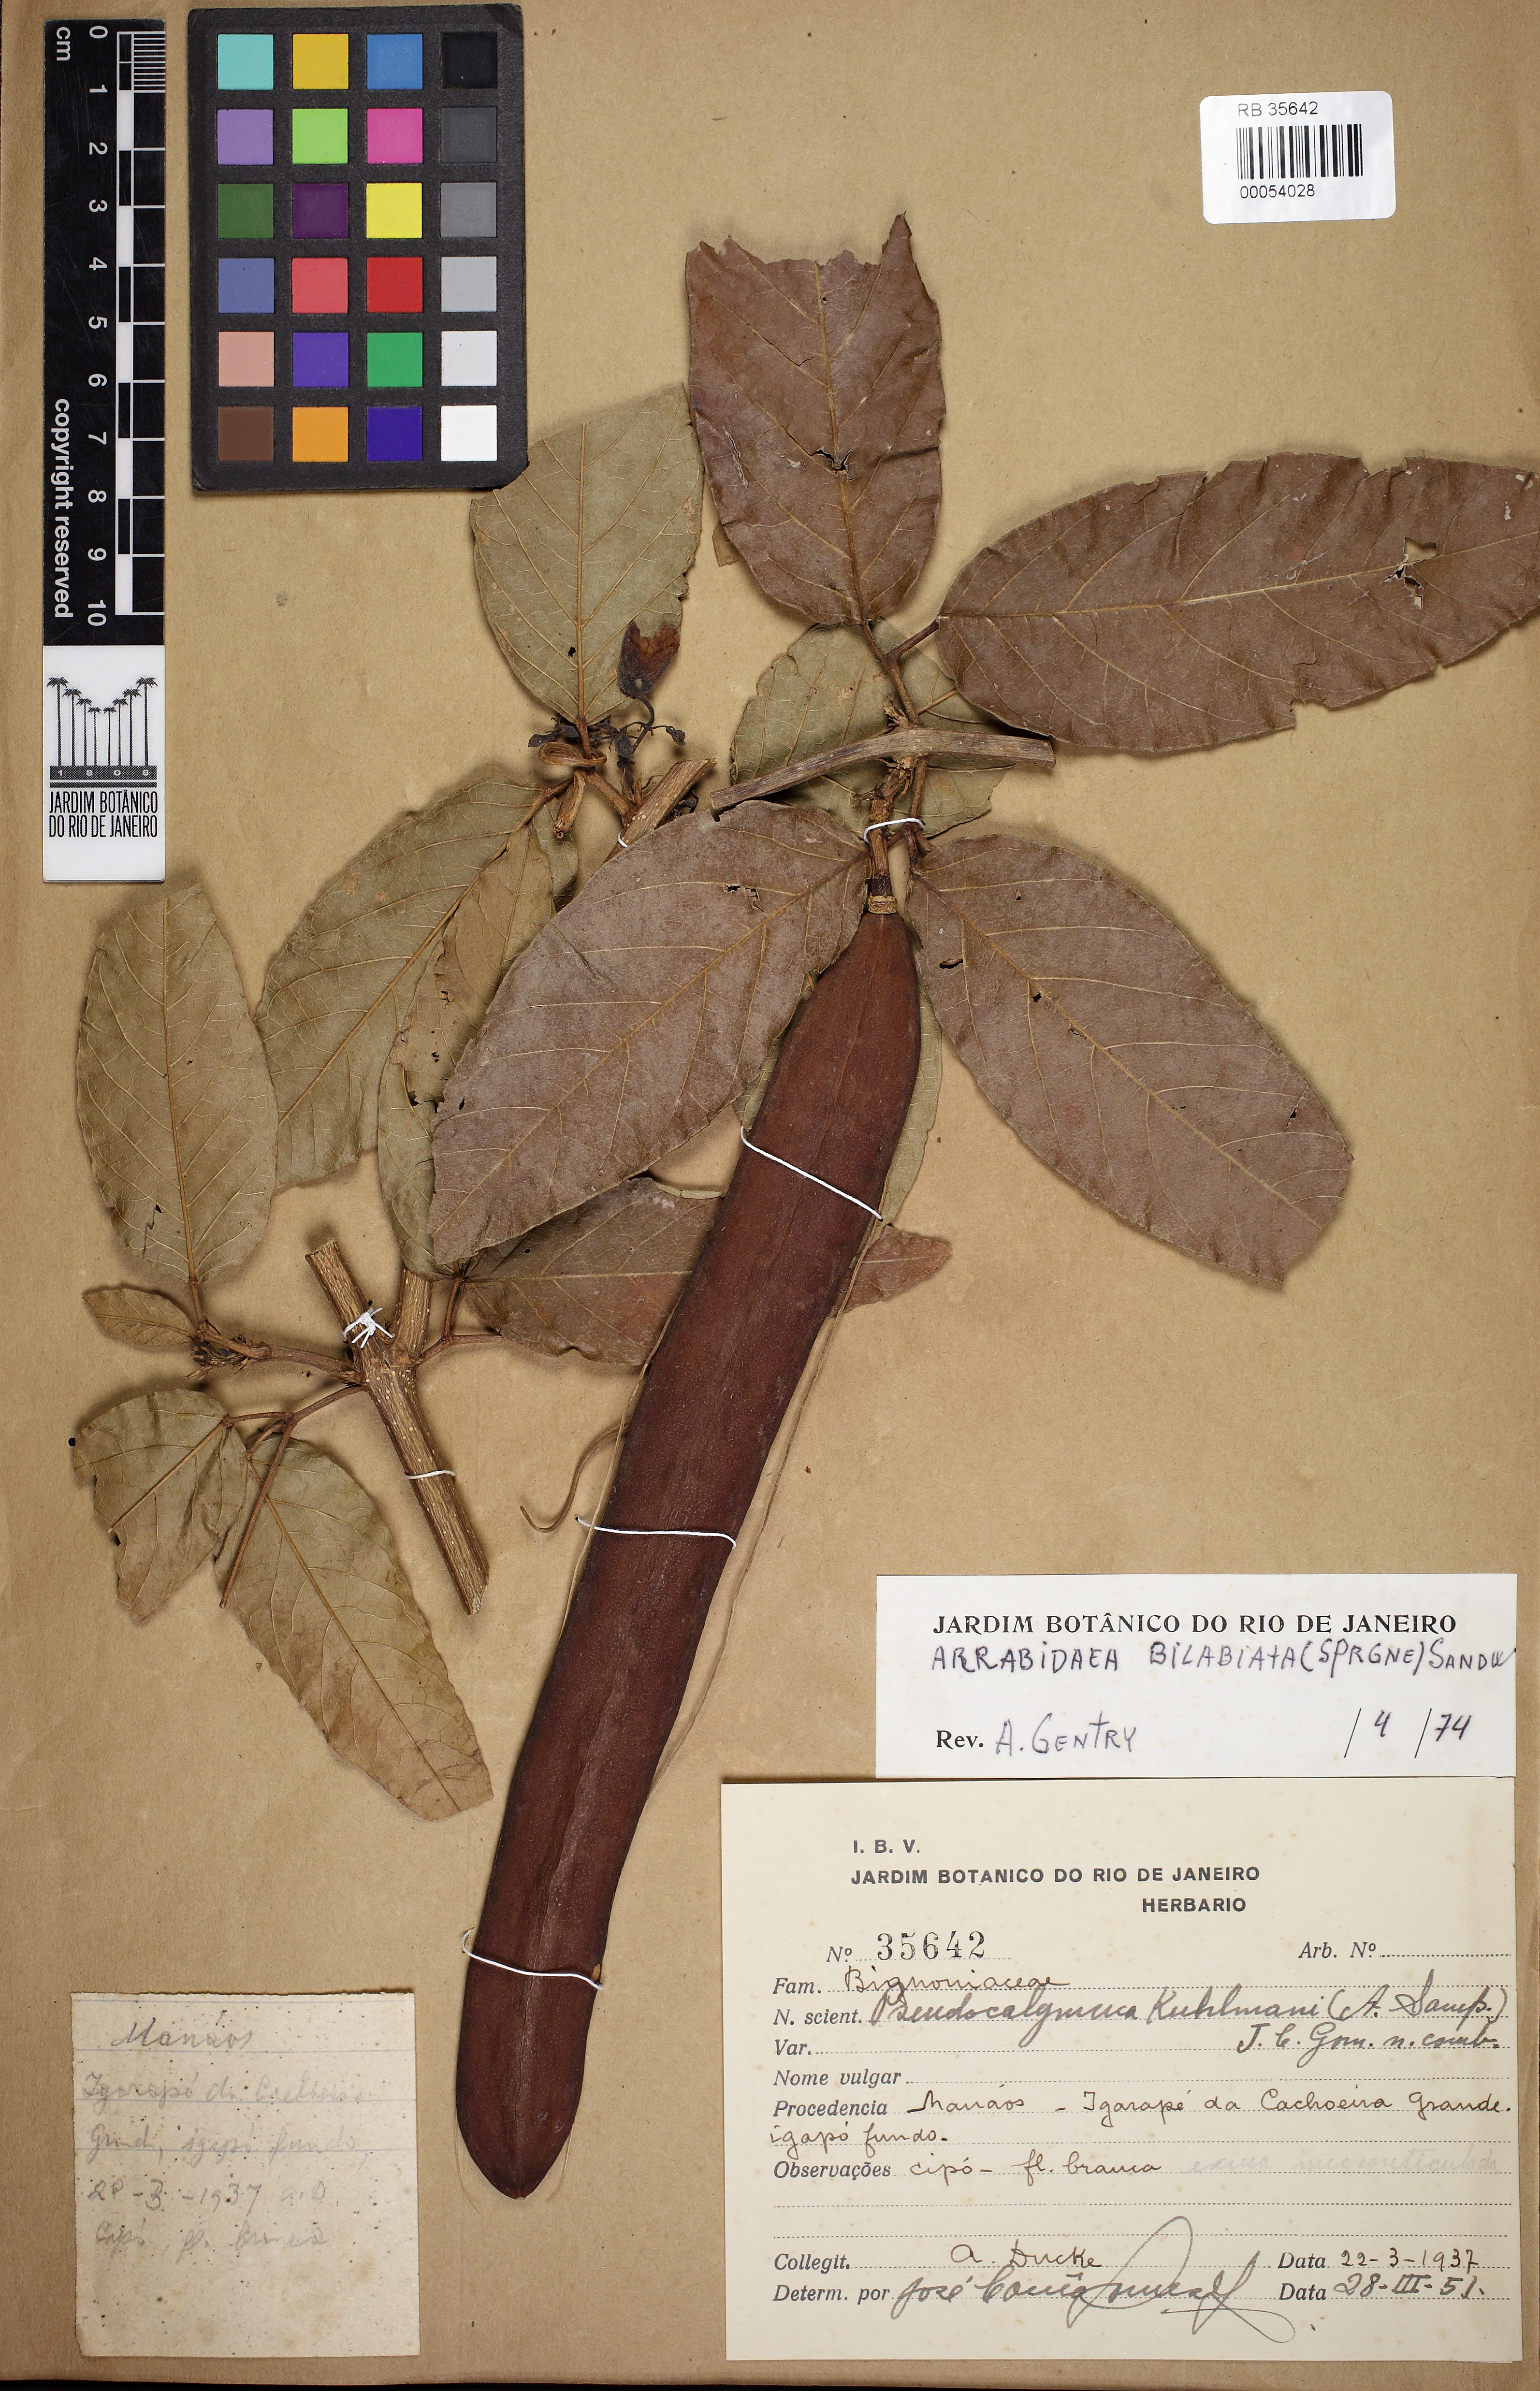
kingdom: Plantae
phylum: Tracheophyta
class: Magnoliopsida
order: Lamiales
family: Bignoniaceae
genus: Tanaecium
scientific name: Tanaecium bilabiatum
